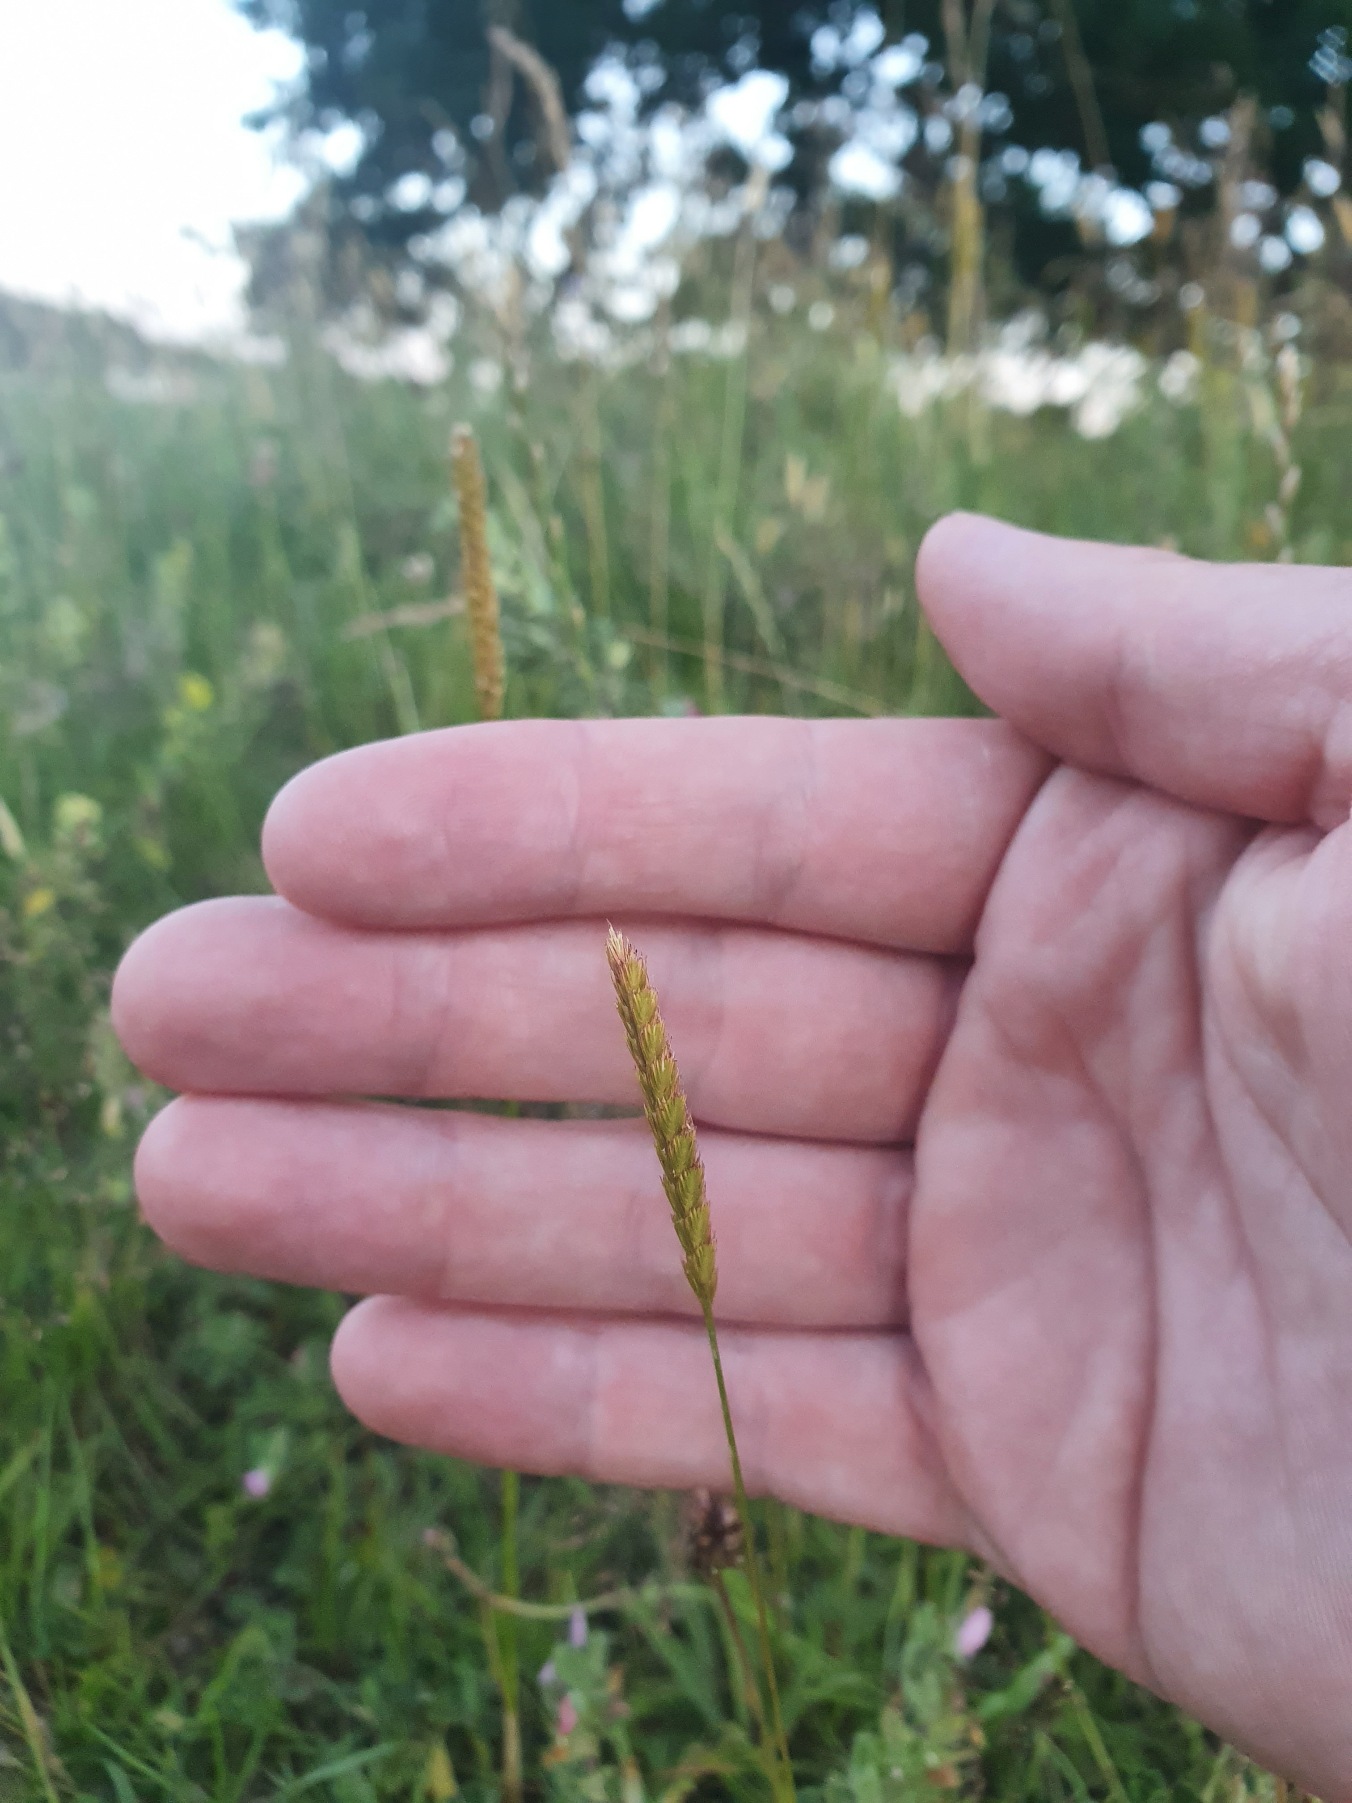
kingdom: Plantae
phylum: Tracheophyta
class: Liliopsida
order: Poales
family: Poaceae
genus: Cynosurus
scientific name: Cynosurus cristatus
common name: Kamgræs
